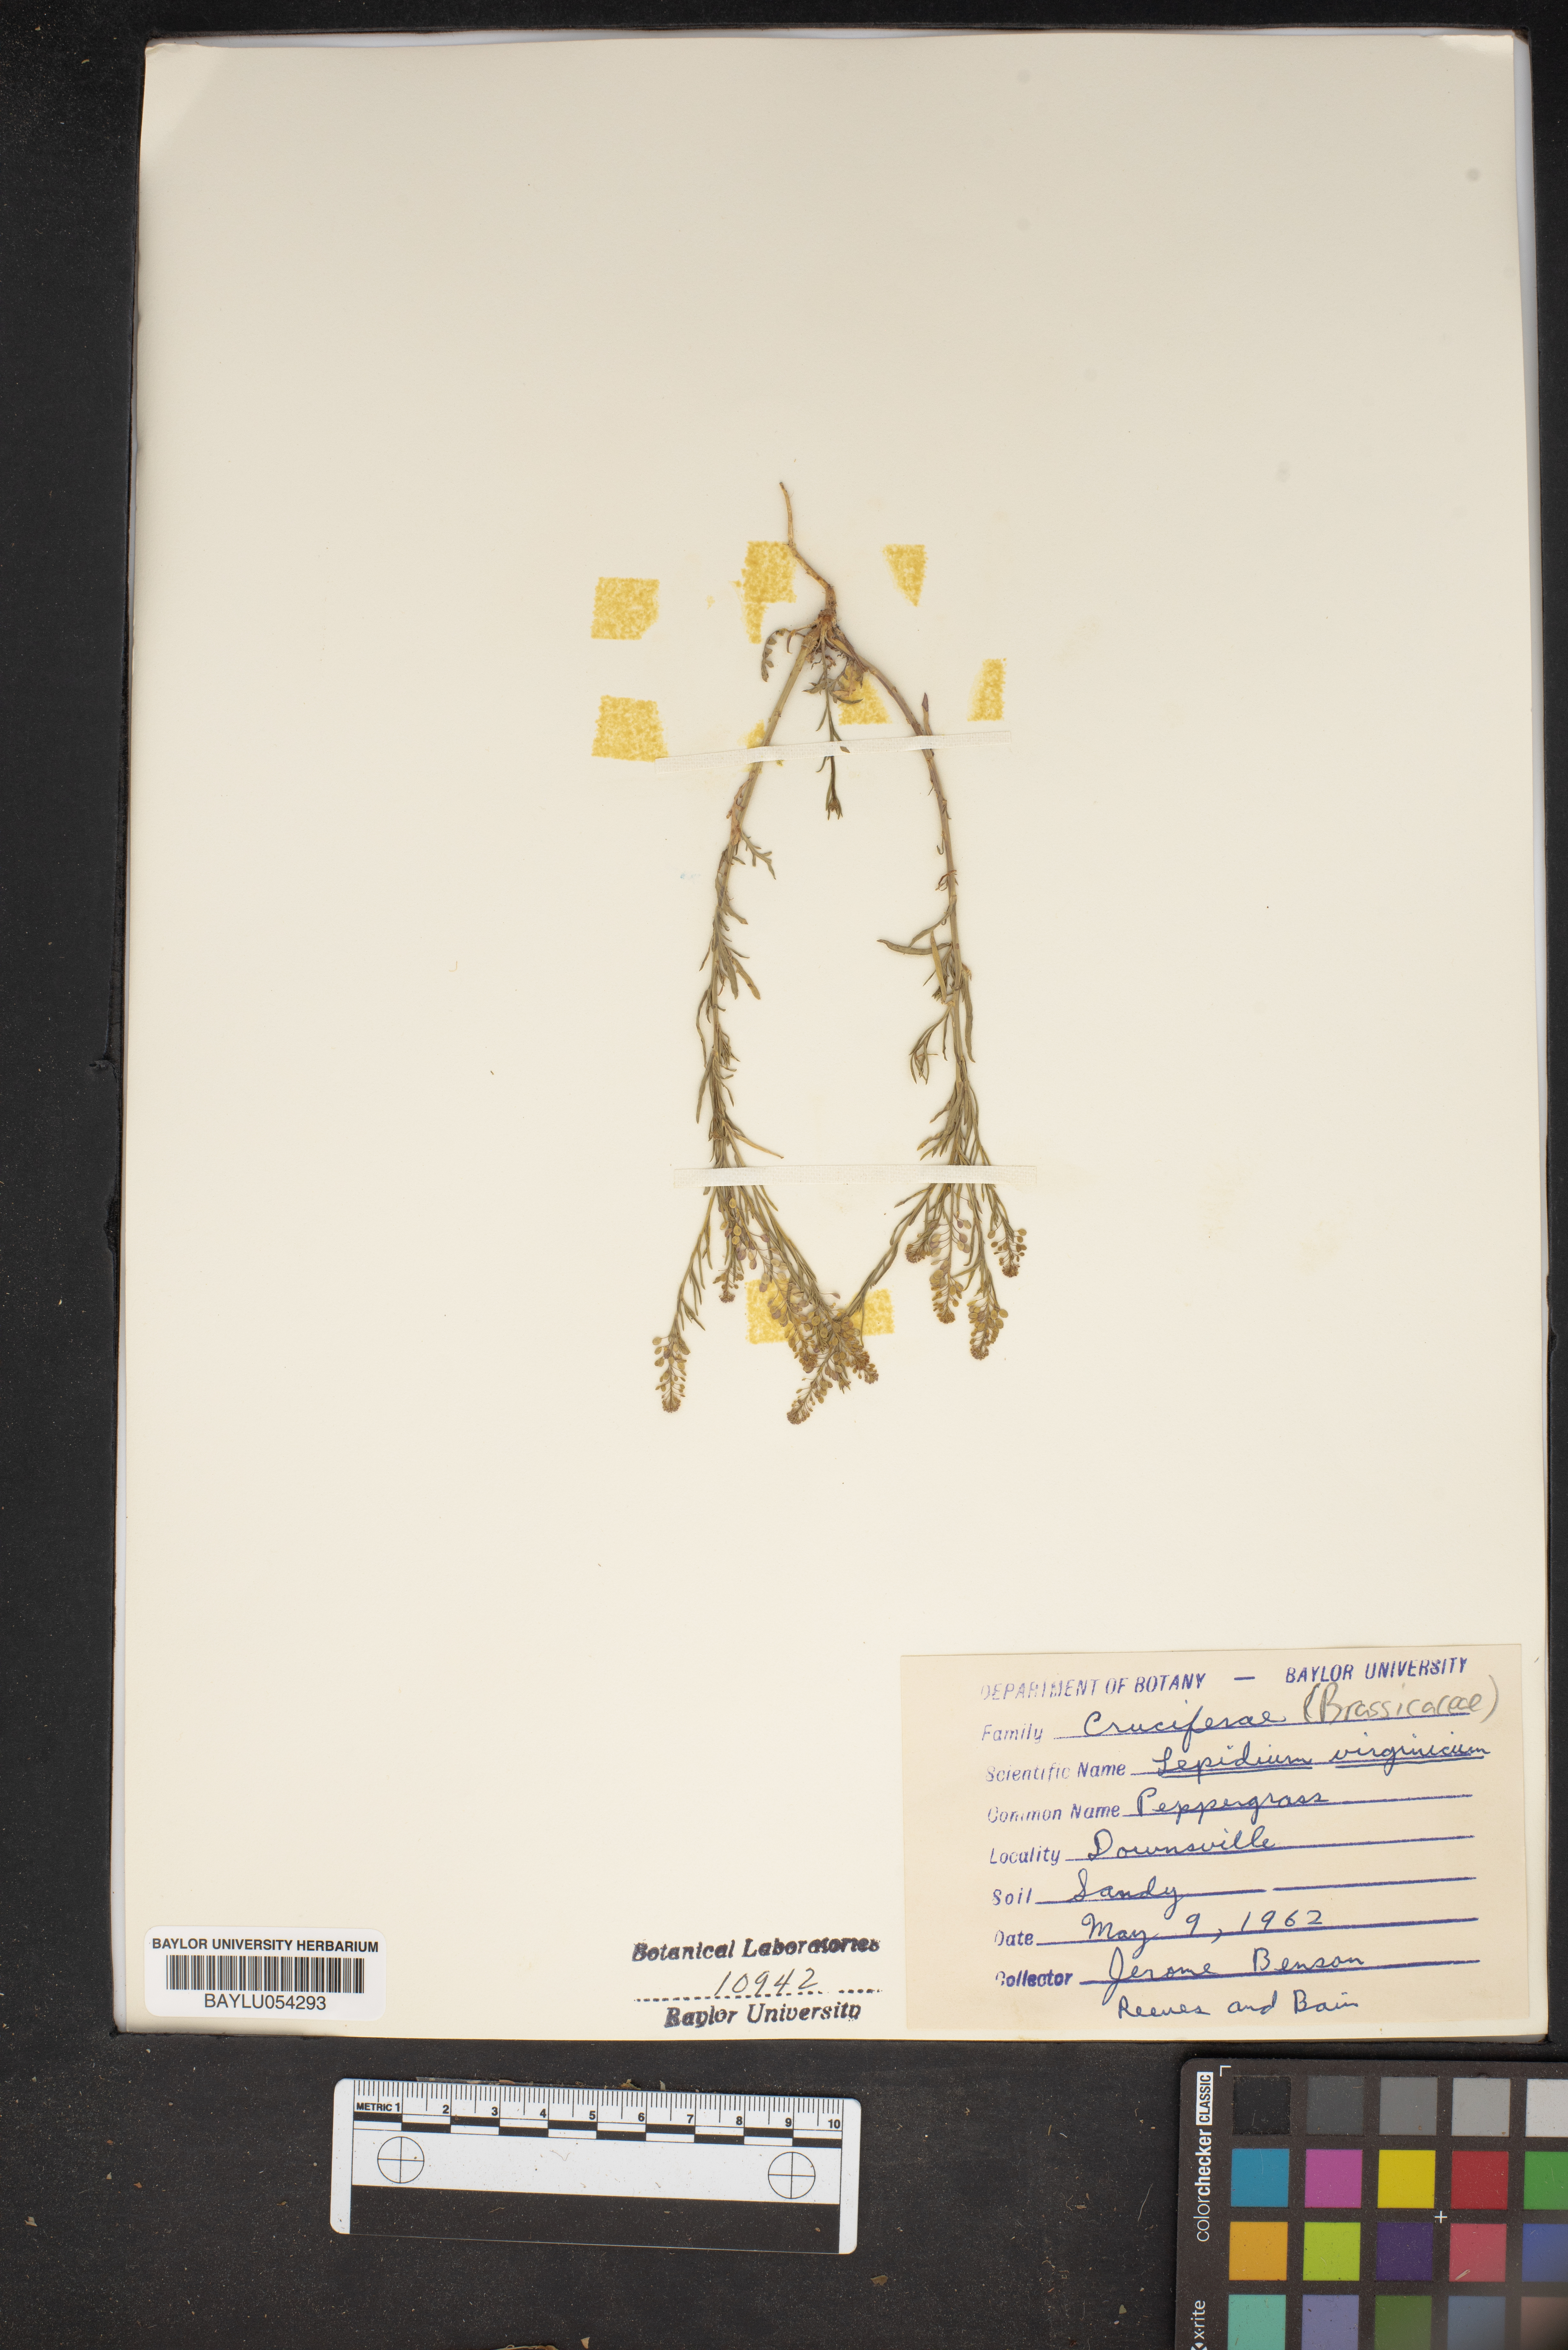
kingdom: Plantae
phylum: Tracheophyta
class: Magnoliopsida
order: Brassicales
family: Brassicaceae
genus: Lepidium
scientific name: Lepidium virginicum
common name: Least pepperwort
